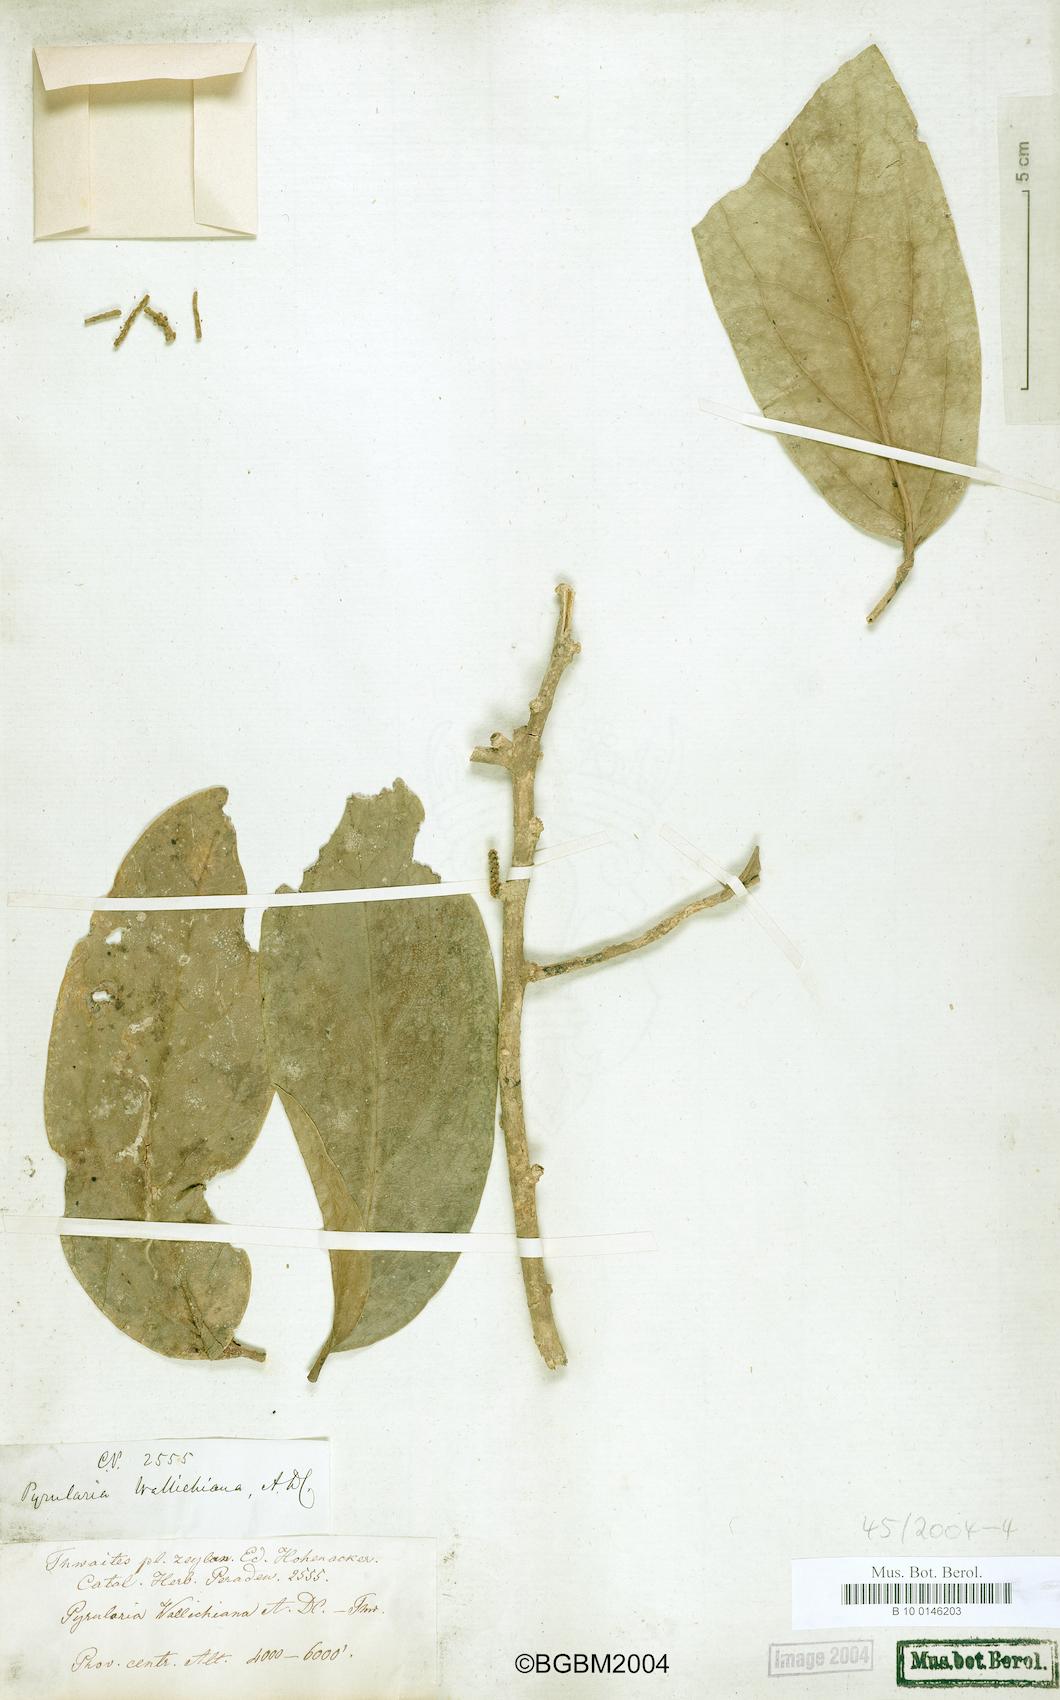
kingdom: Plantae
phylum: Tracheophyta
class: Magnoliopsida
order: Santalales
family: Cervantesiaceae
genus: Scleropyrum
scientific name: Scleropyrum pentandrum
